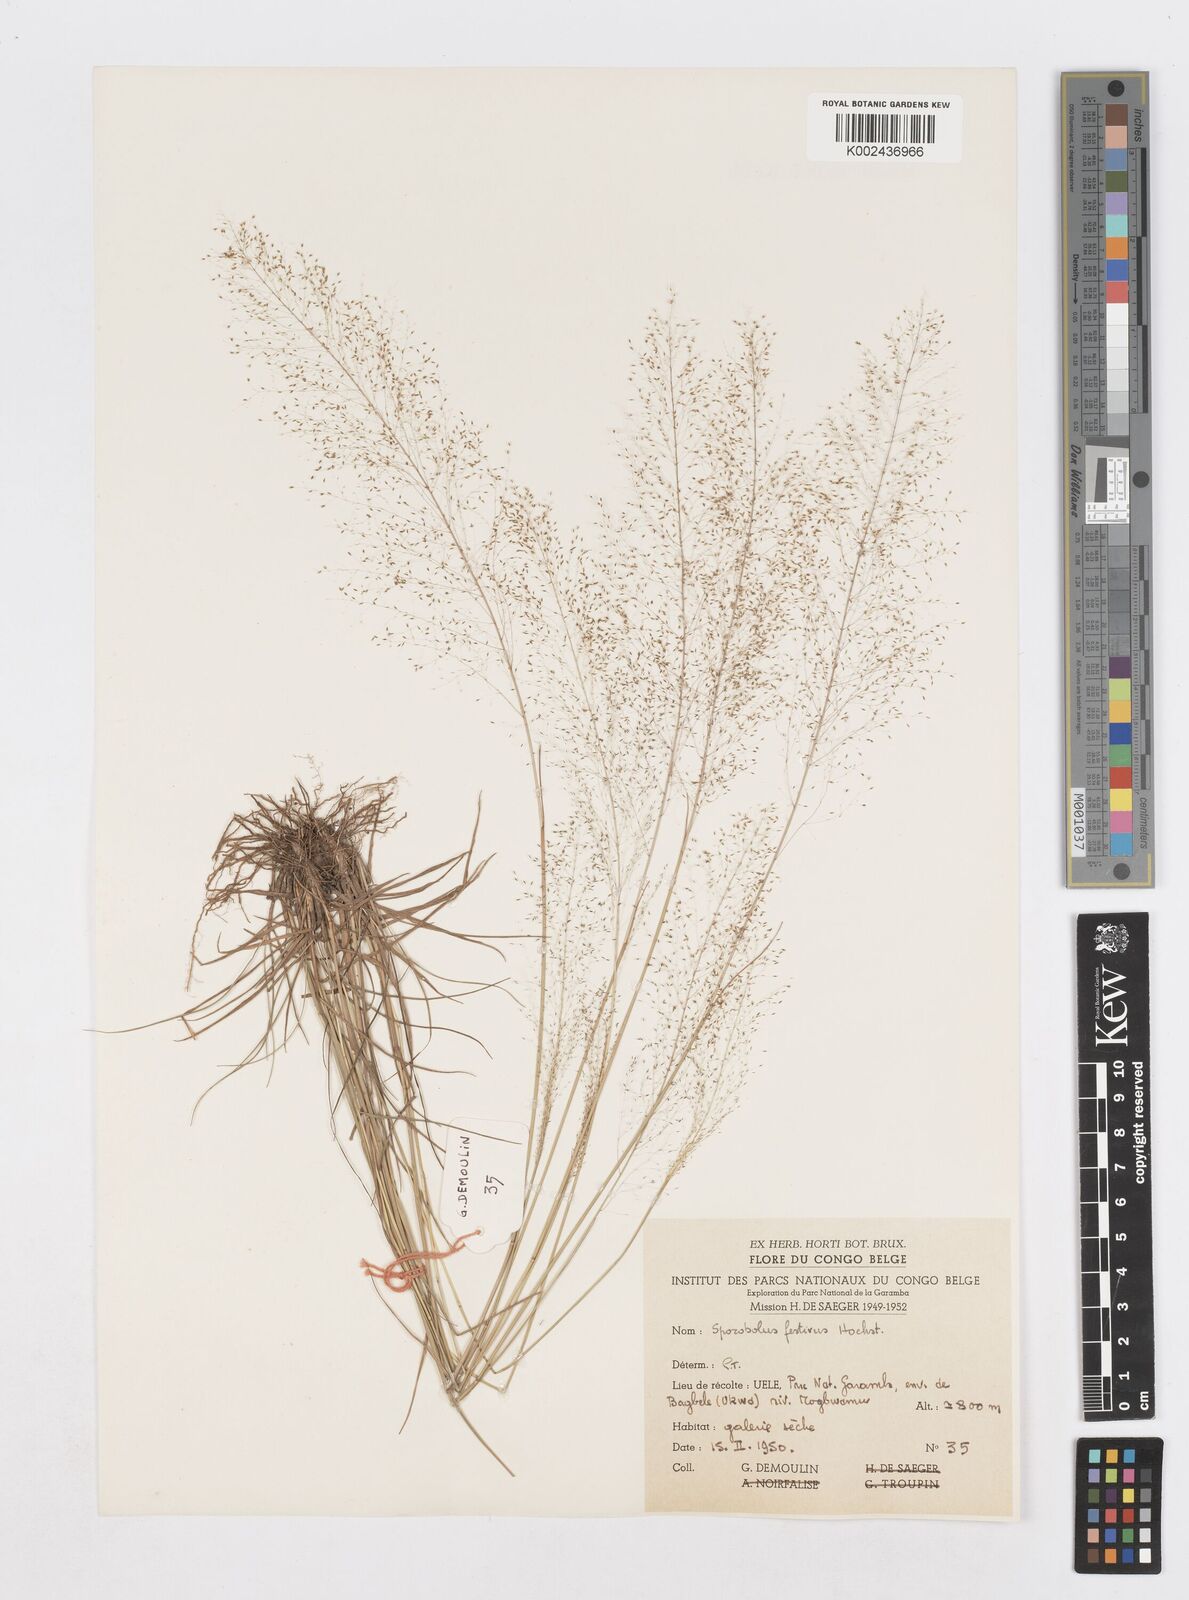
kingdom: Plantae
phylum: Tracheophyta
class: Liliopsida
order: Poales
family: Poaceae
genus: Sporobolus
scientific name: Sporobolus festivus
